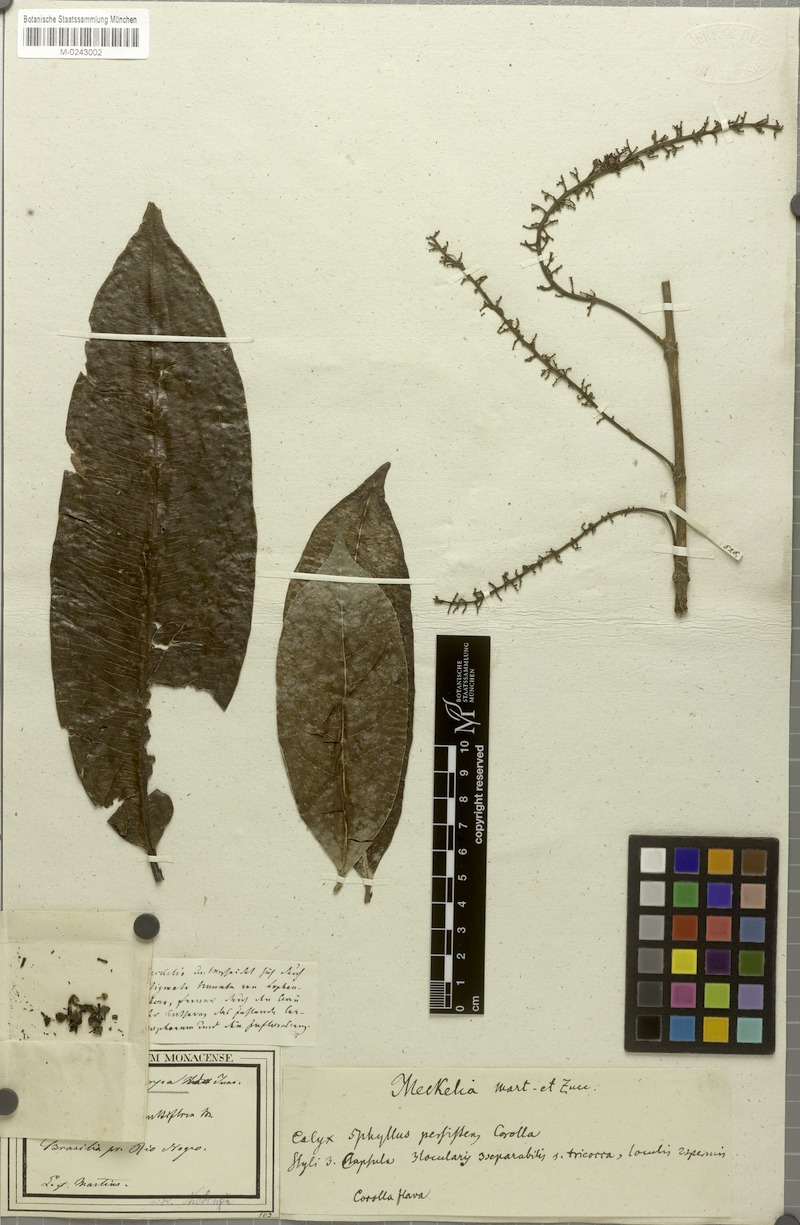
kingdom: Plantae
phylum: Tracheophyta
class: Magnoliopsida
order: Malpighiales
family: Malpighiaceae
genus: Spachea
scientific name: Spachea tricarpa
